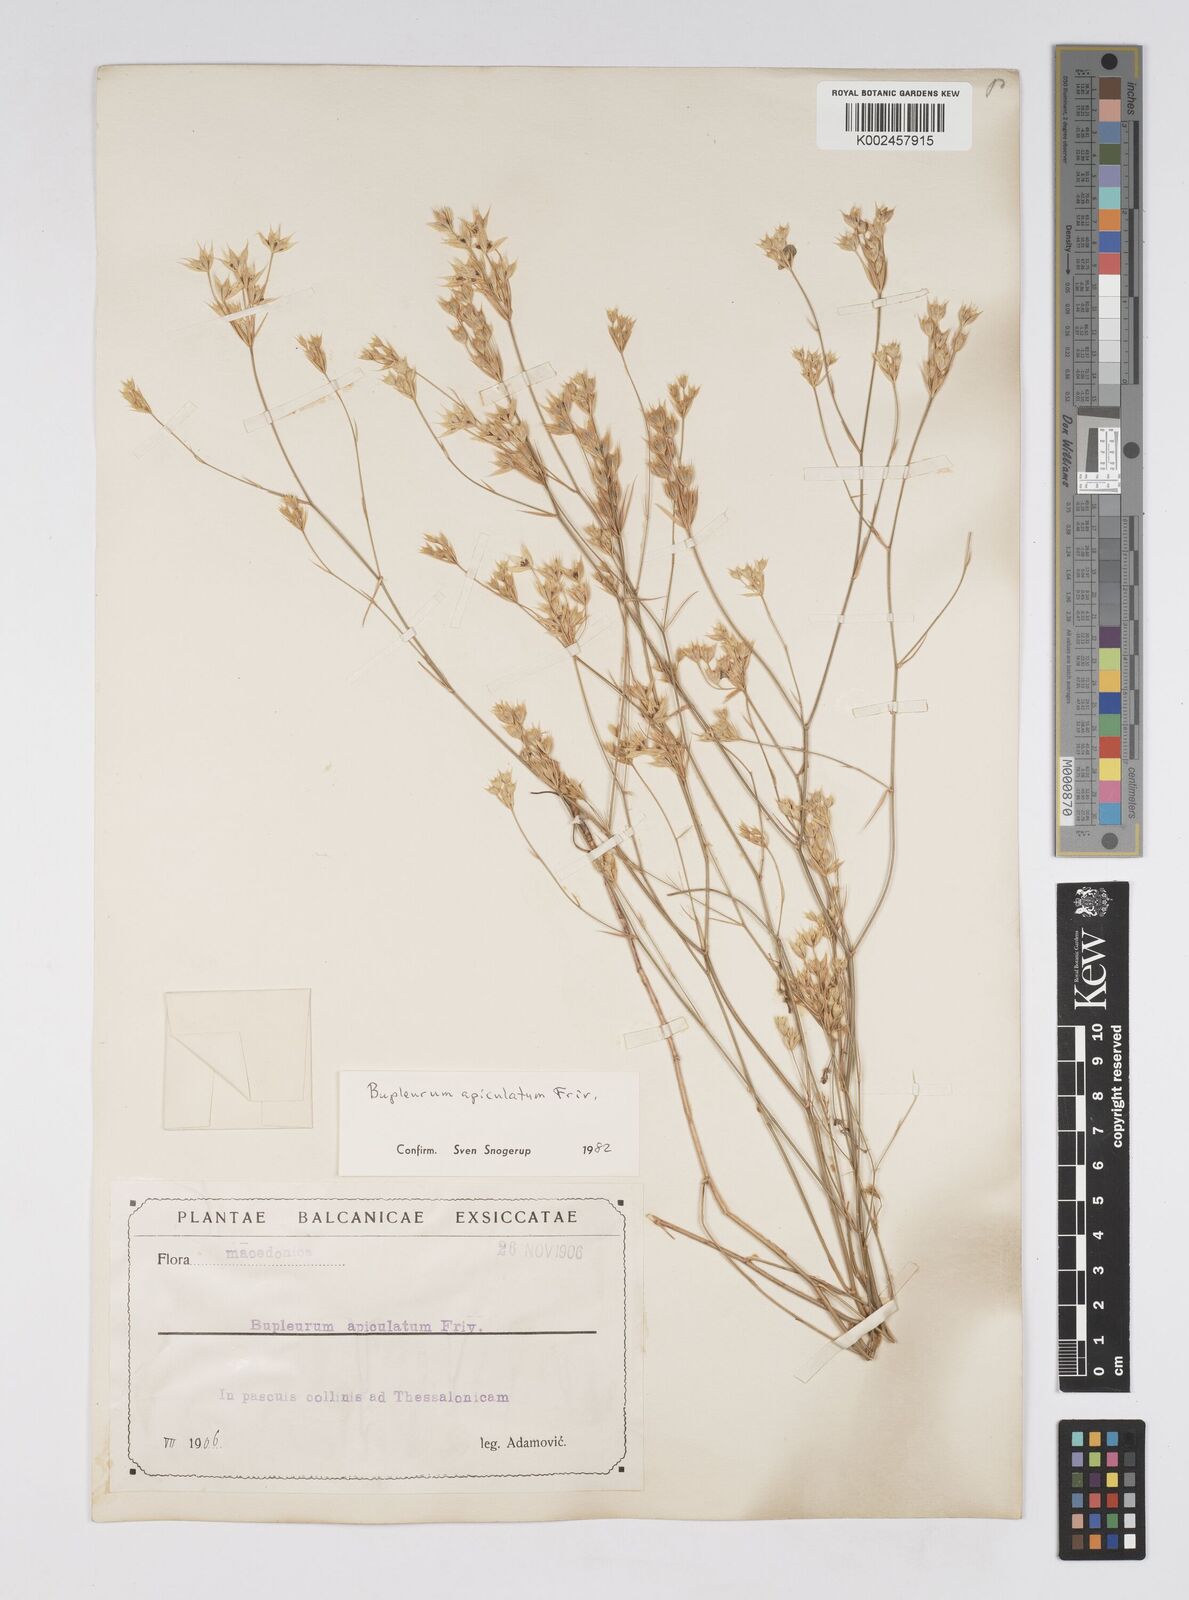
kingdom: Plantae
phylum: Tracheophyta
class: Magnoliopsida
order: Apiales
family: Apiaceae
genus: Bupleurum
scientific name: Bupleurum apiculatum
